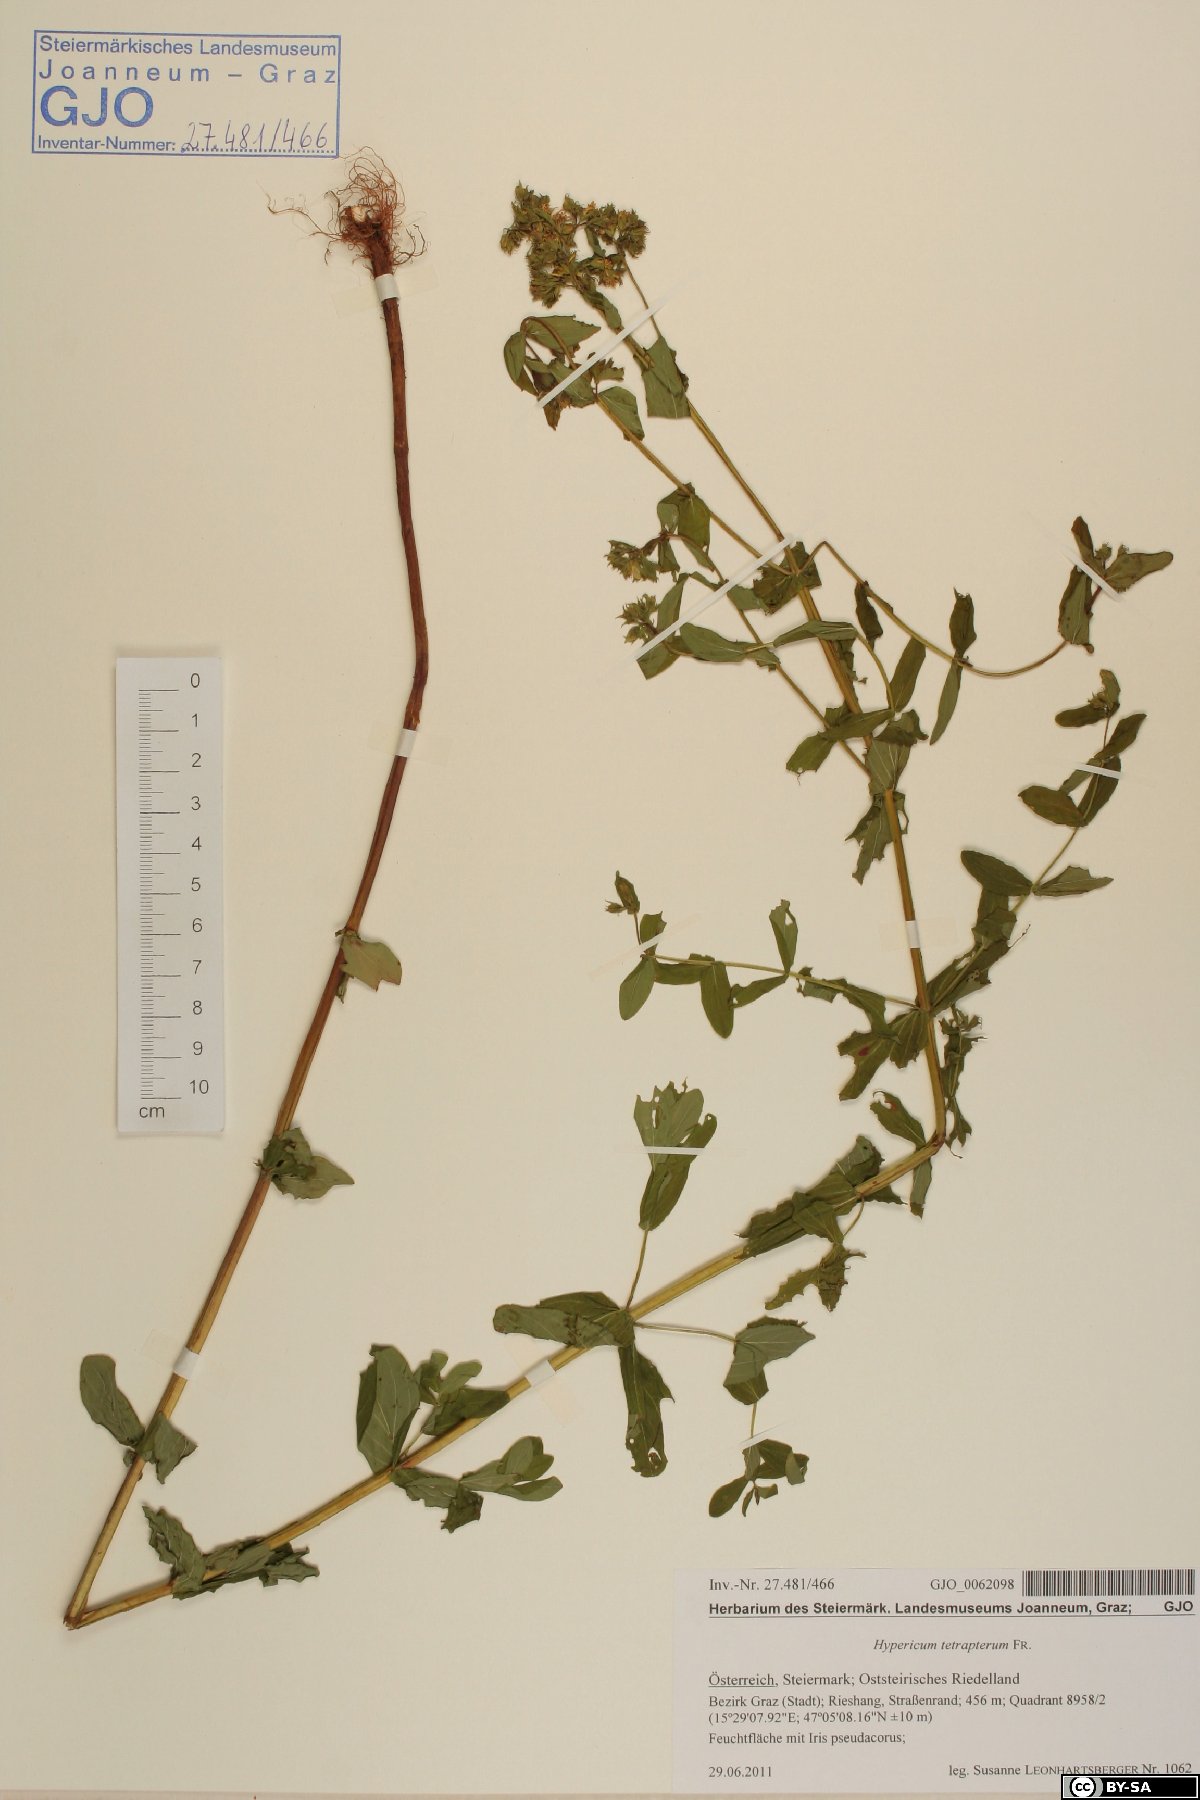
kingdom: Plantae
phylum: Tracheophyta
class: Magnoliopsida
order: Malpighiales
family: Hypericaceae
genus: Hypericum
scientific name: Hypericum tetrapterum
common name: Square-stalked st. john's-wort
